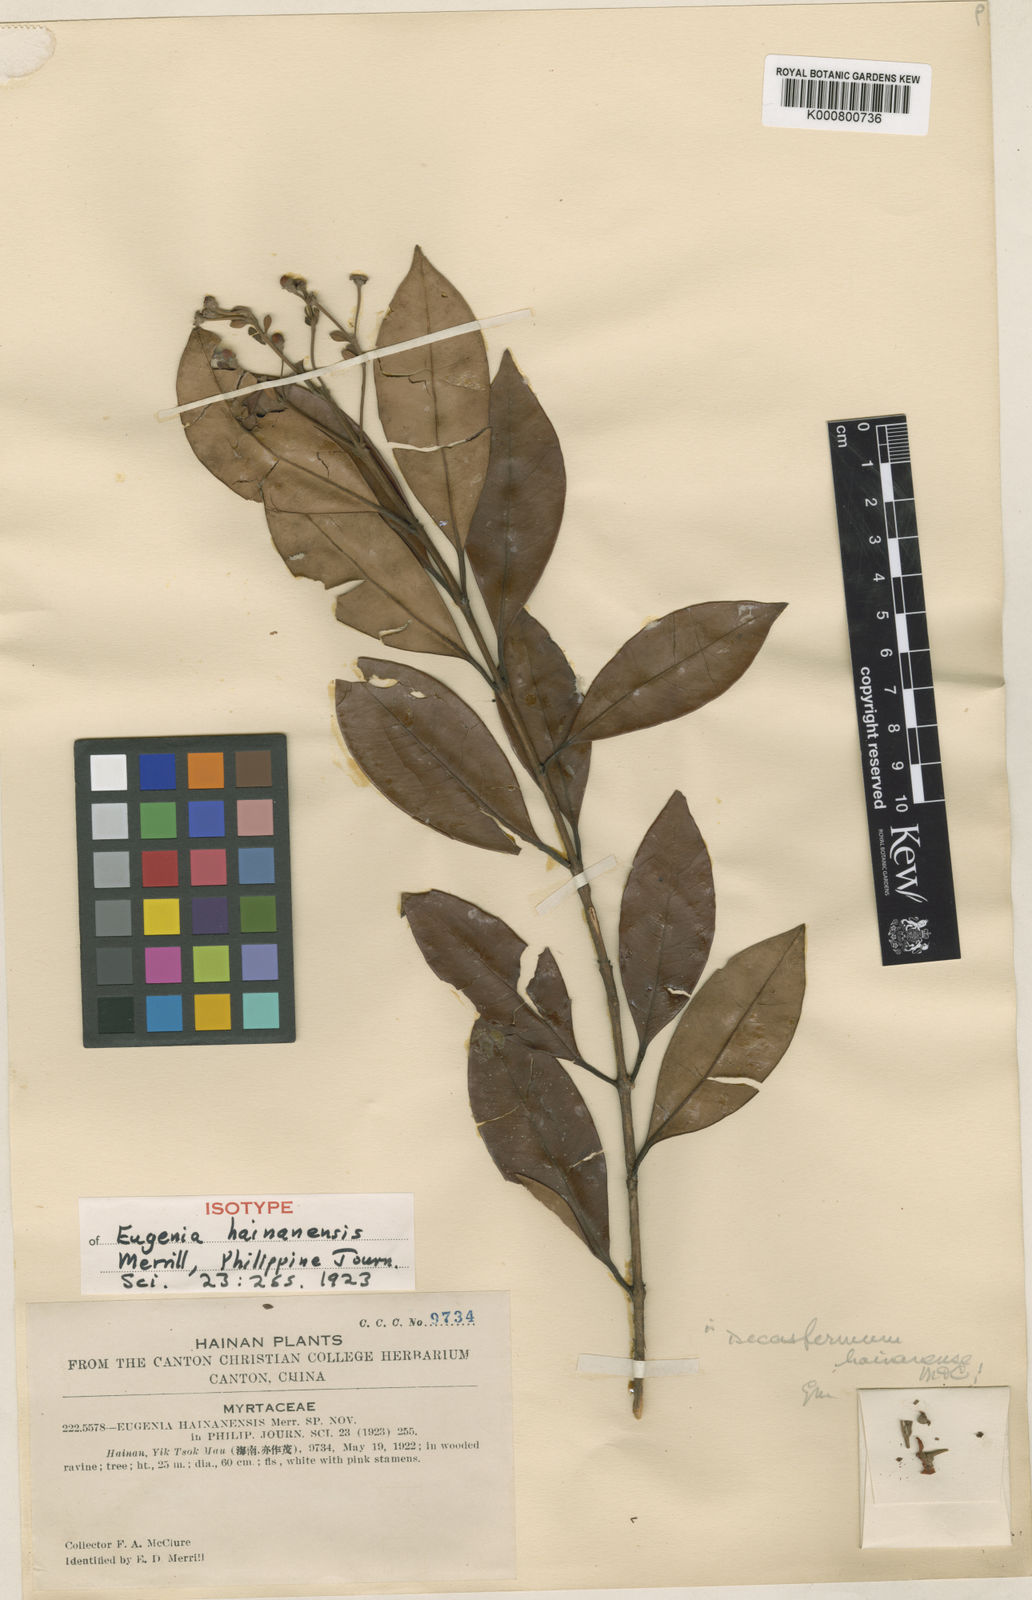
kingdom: Plantae
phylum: Tracheophyta
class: Magnoliopsida
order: Myrtales
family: Myrtaceae
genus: Decaspermum
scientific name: Decaspermum hainanense
